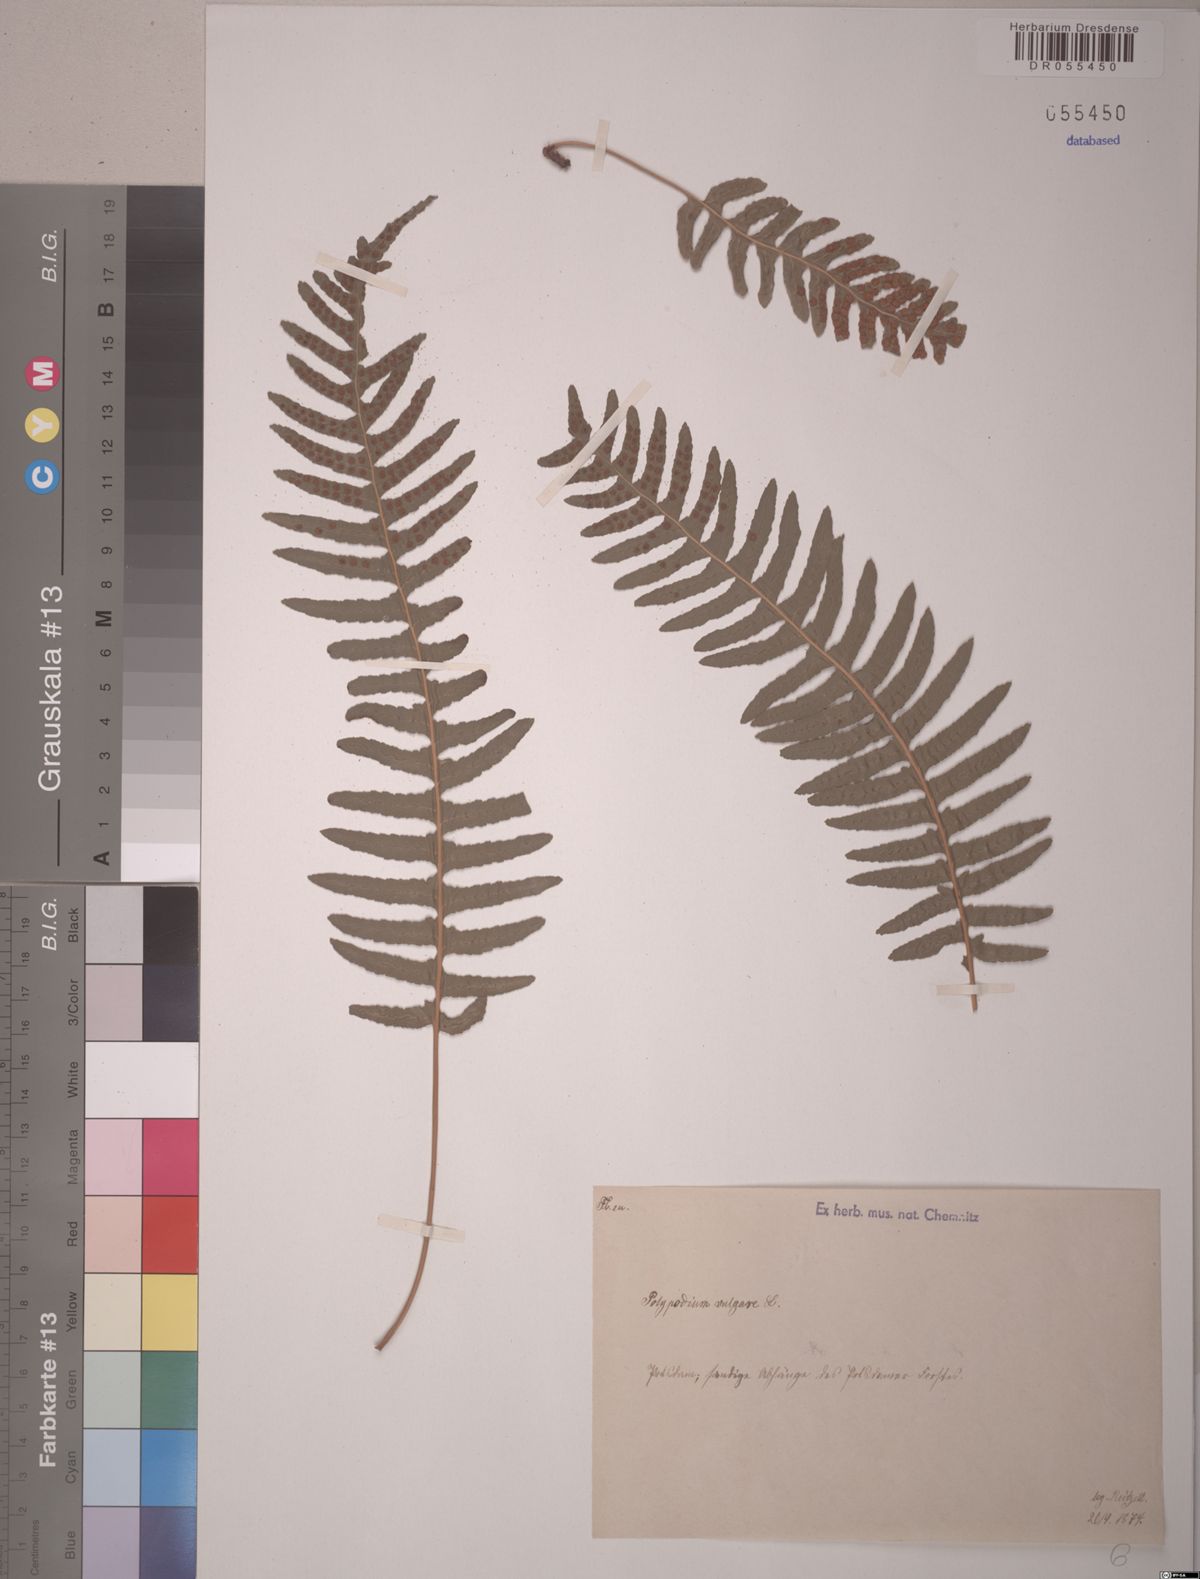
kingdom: Plantae
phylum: Tracheophyta
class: Polypodiopsida
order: Polypodiales
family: Polypodiaceae
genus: Polypodium
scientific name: Polypodium vulgare
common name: Common polypody
